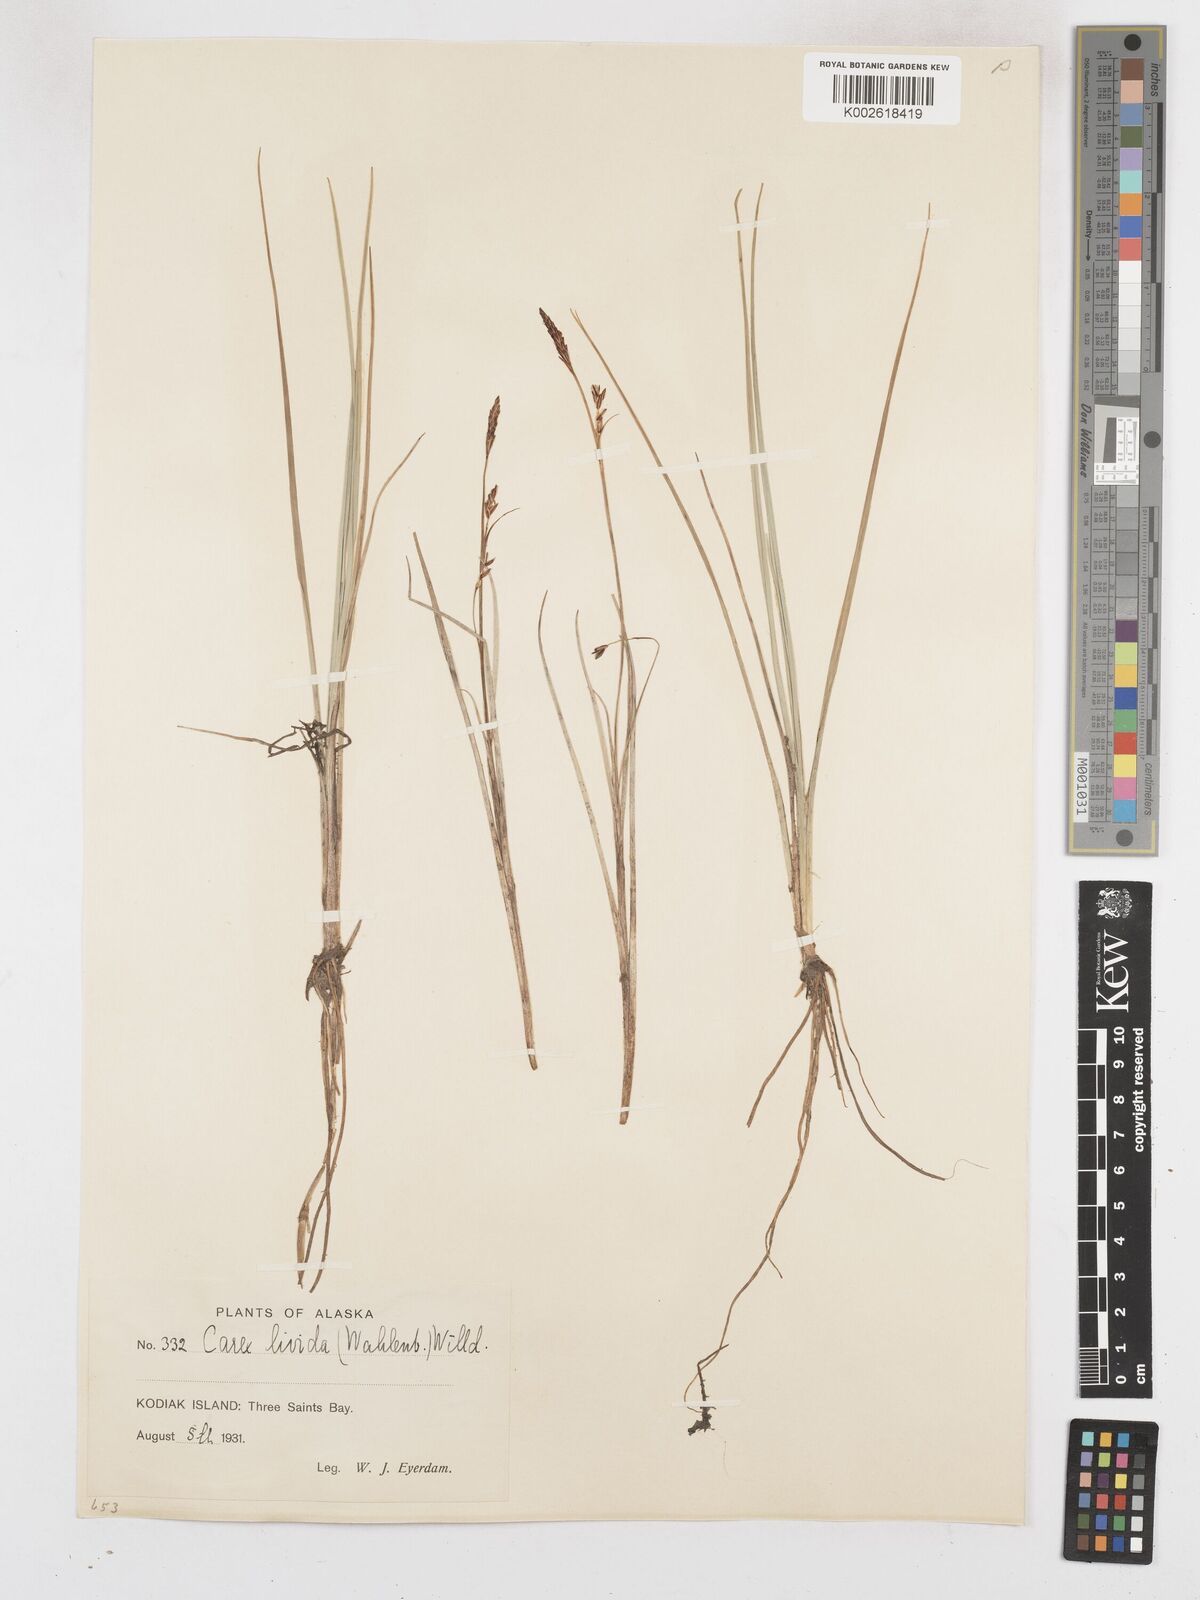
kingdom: Plantae
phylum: Tracheophyta
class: Liliopsida
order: Poales
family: Cyperaceae
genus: Carex
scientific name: Carex livida
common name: Livid sedge
